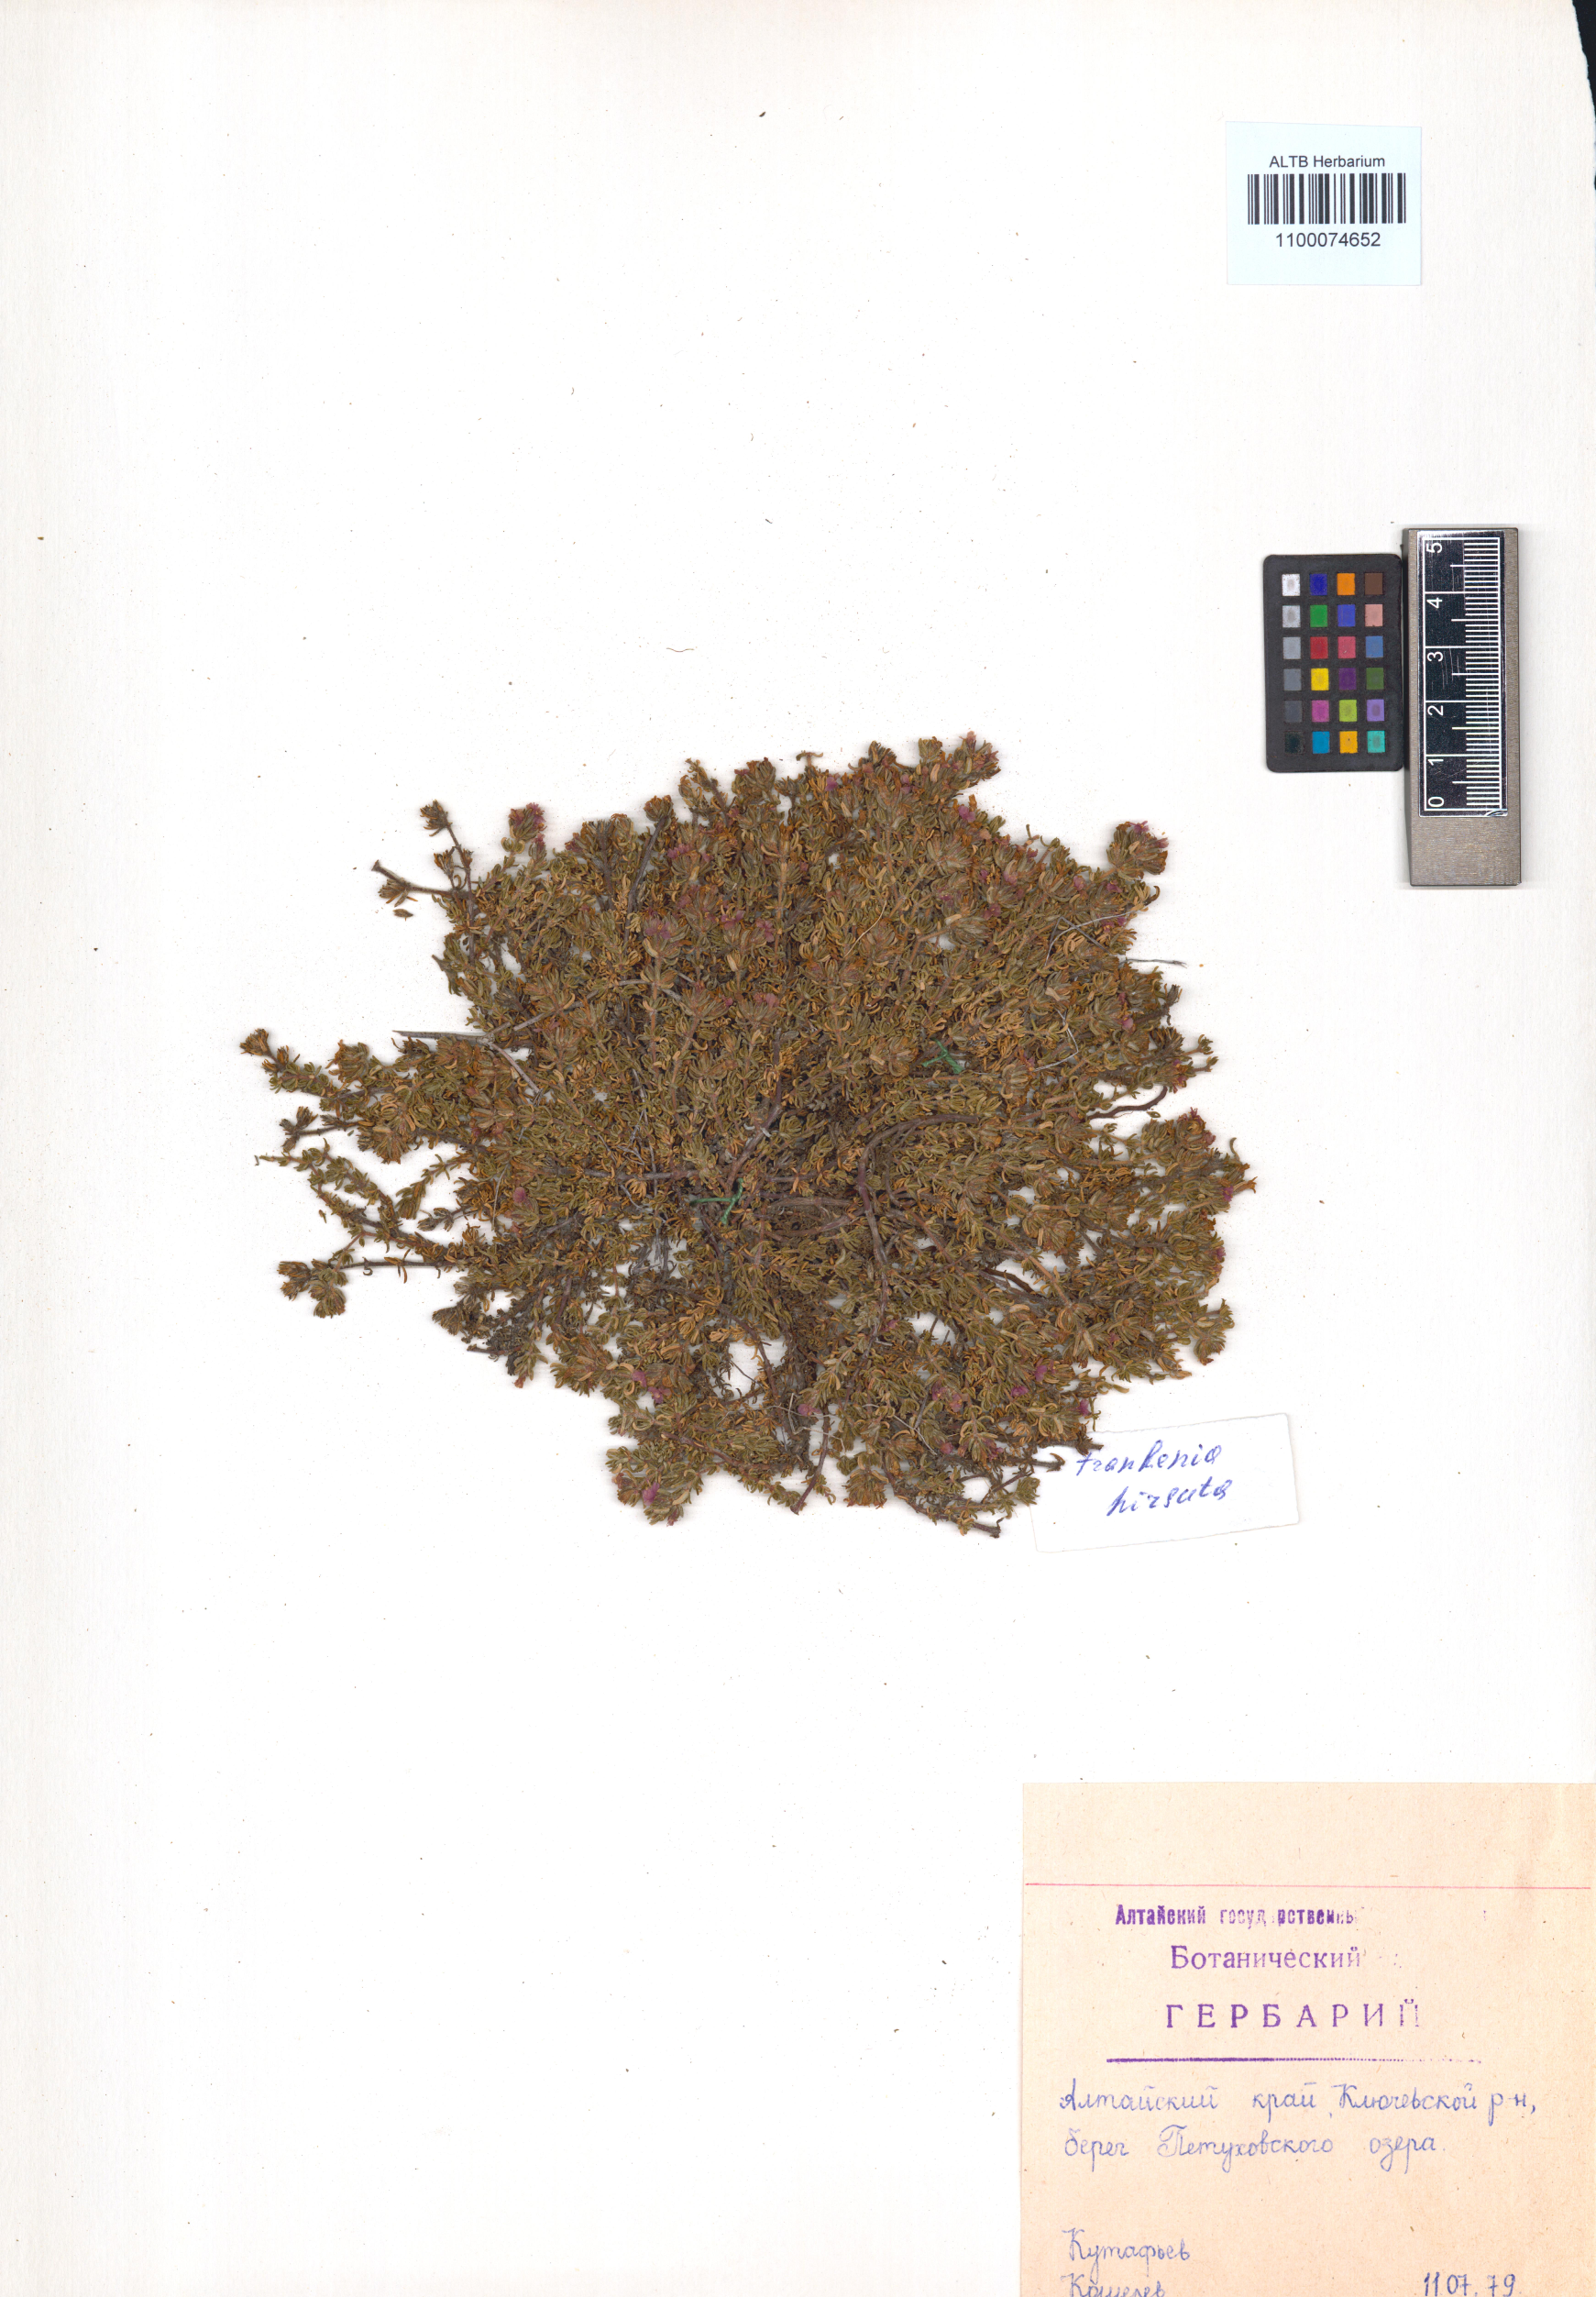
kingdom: Plantae
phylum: Tracheophyta
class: Magnoliopsida
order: Caryophyllales
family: Frankeniaceae
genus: Frankenia
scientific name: Frankenia hirsuta
